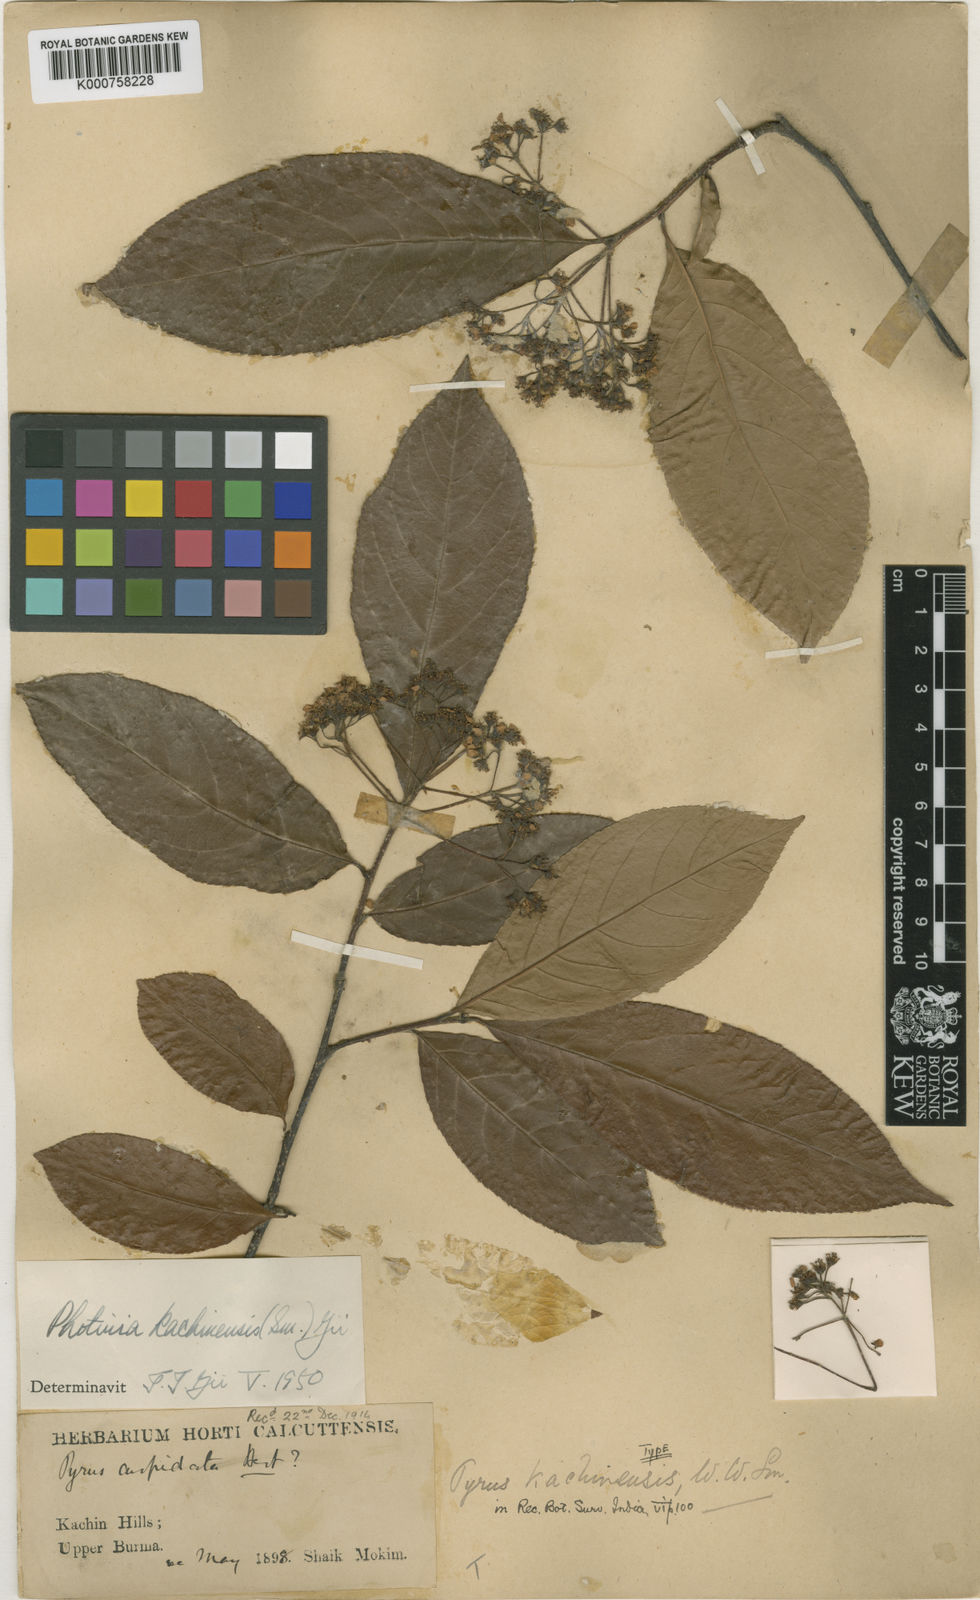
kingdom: Plantae
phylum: Tracheophyta
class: Magnoliopsida
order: Rosales
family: Rosaceae
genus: Micromeles
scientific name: Micromeles cuspidata
